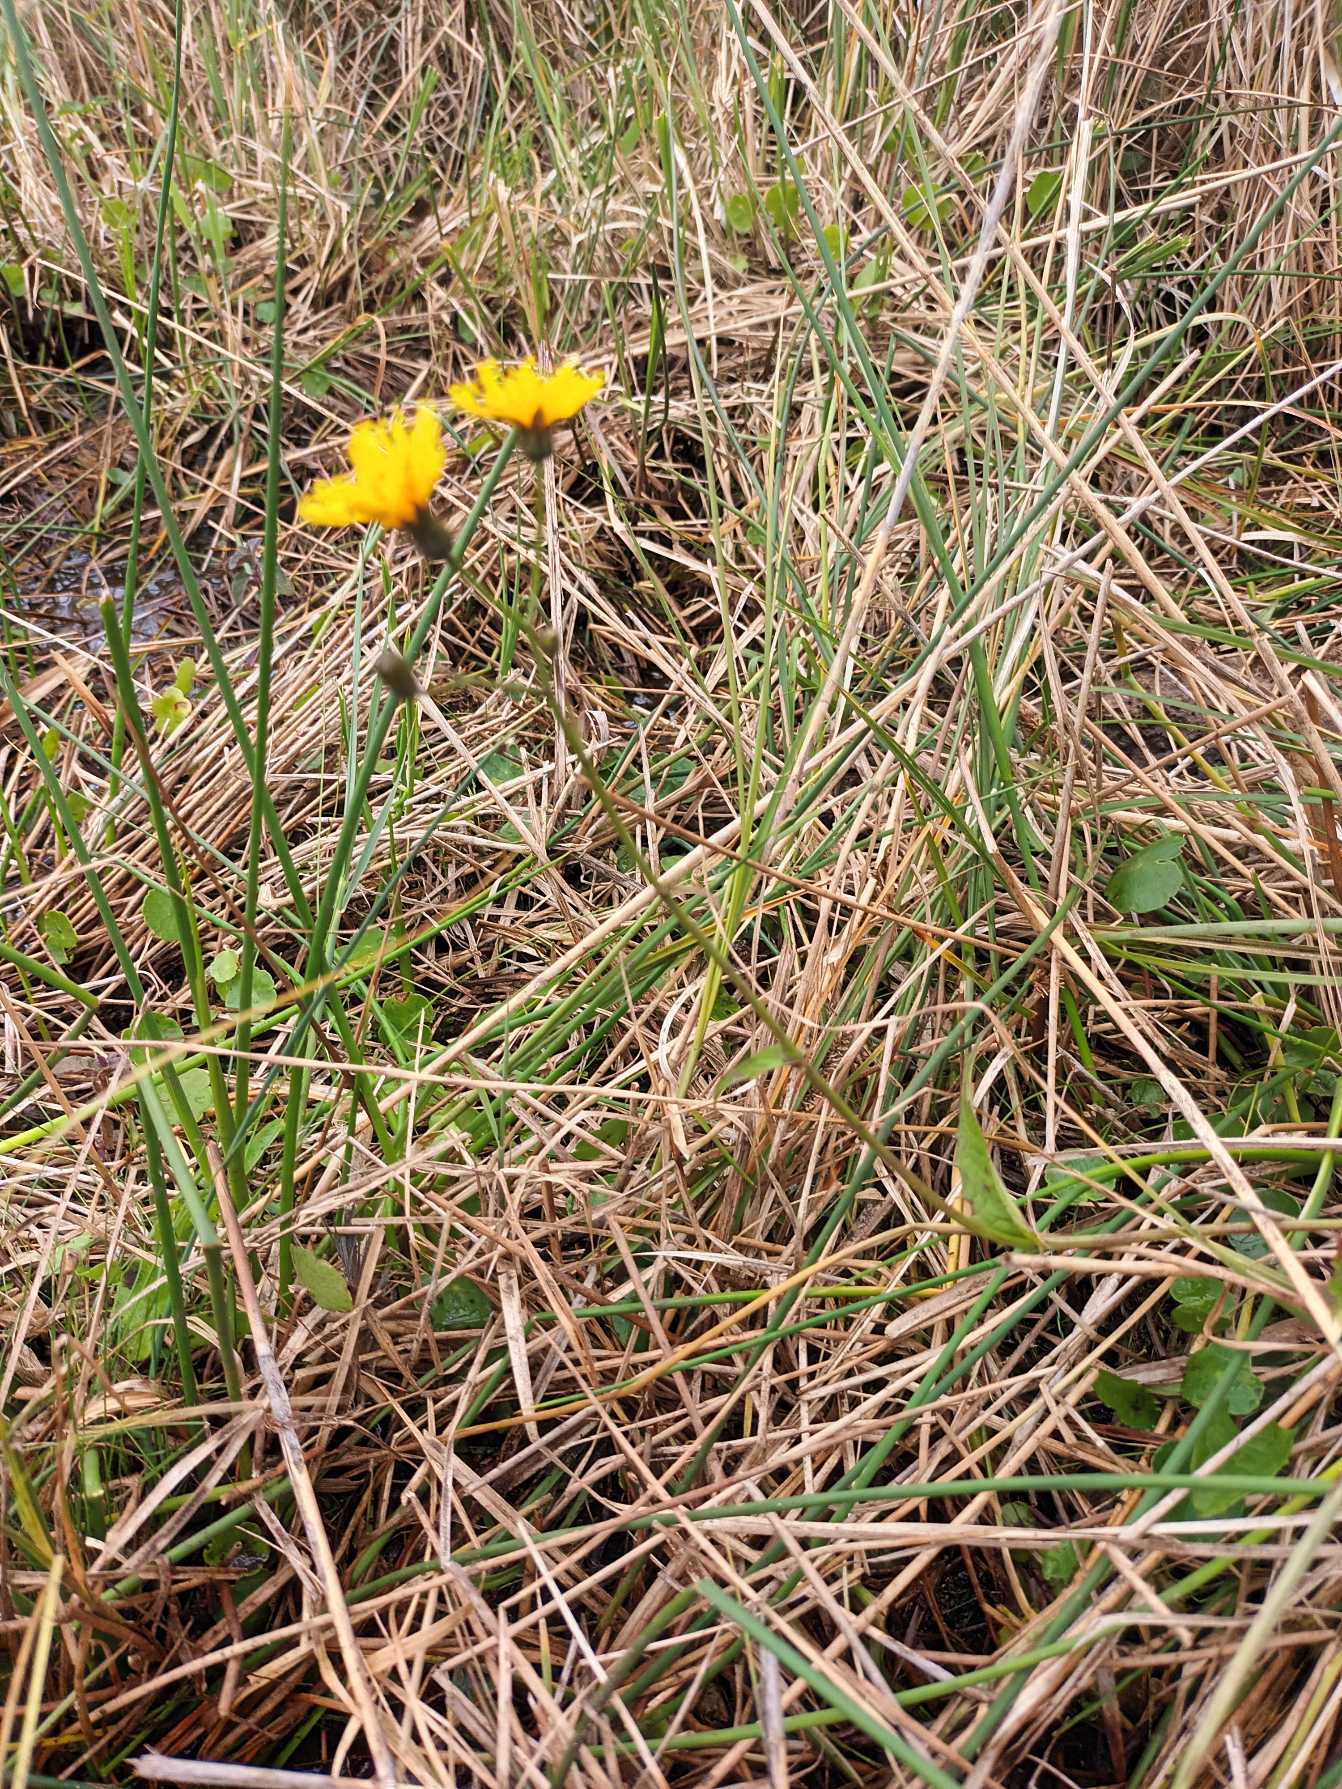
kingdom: Plantae
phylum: Tracheophyta
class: Magnoliopsida
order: Asterales
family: Asteraceae
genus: Crepis
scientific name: Crepis paludosa
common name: Kær-høgeskæg
